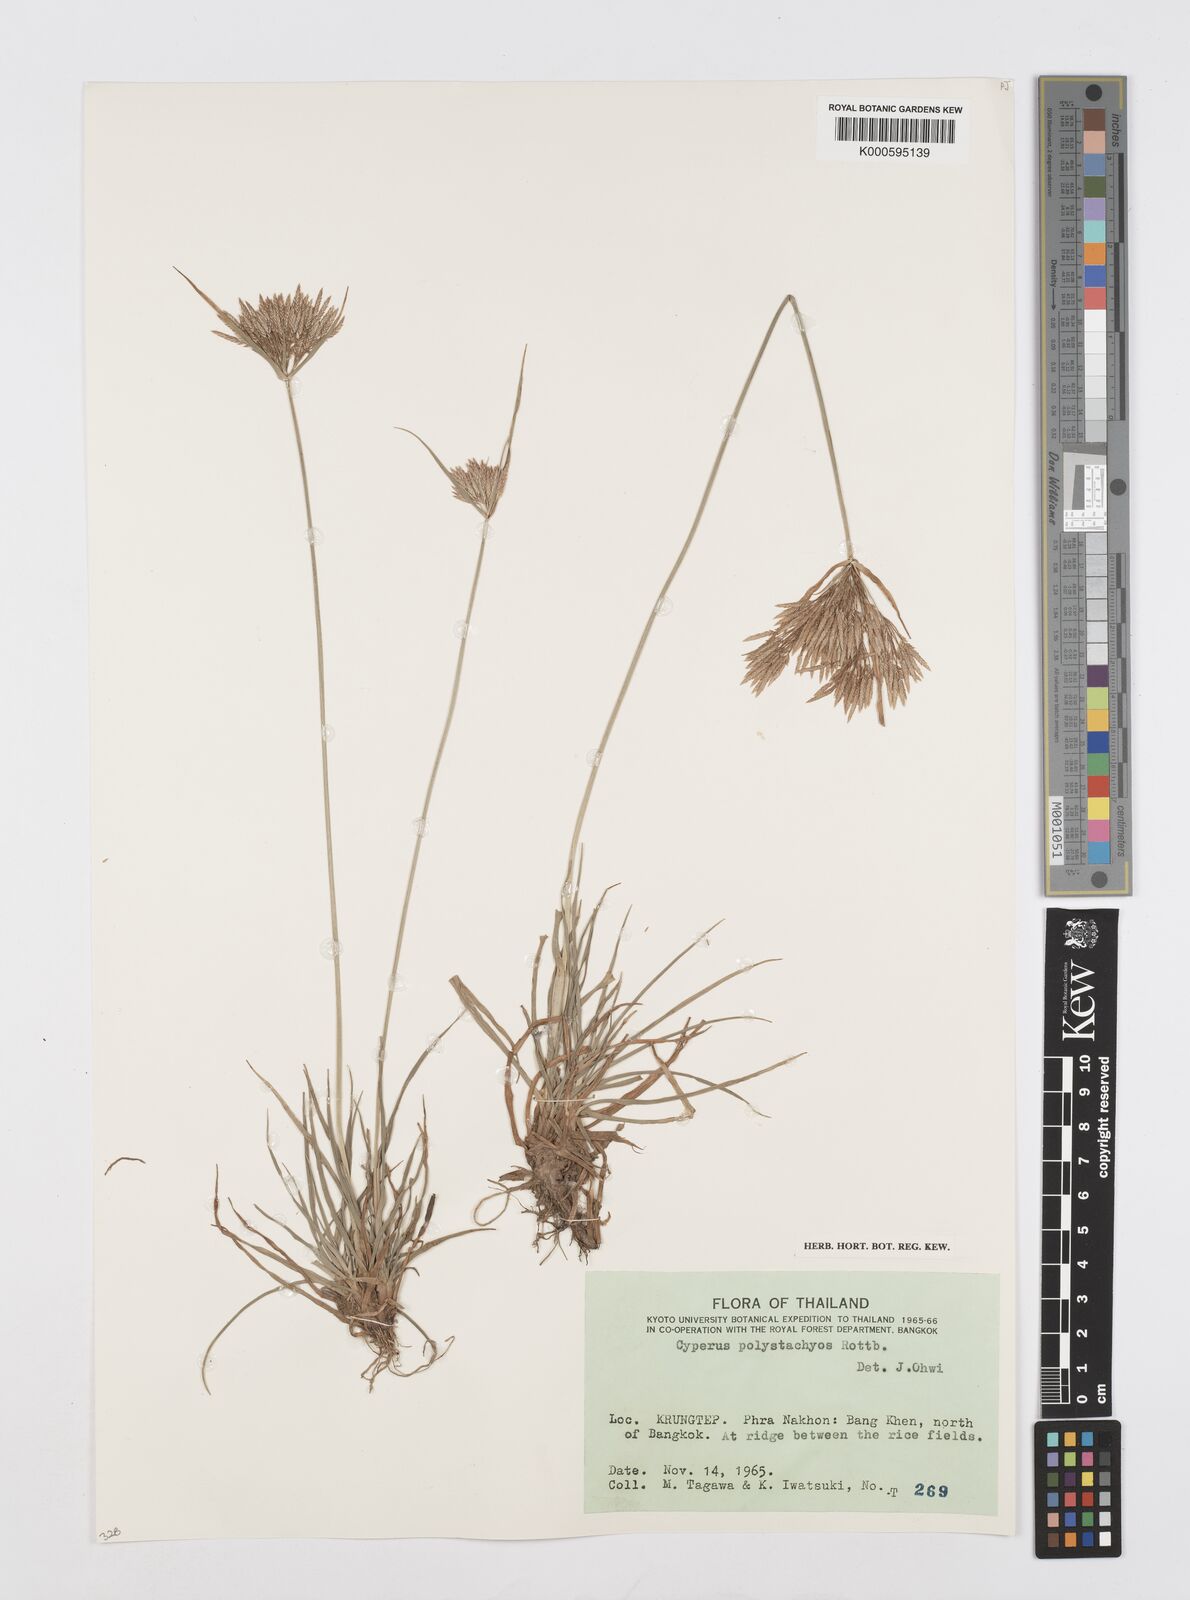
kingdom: Plantae
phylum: Tracheophyta
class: Liliopsida
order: Poales
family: Cyperaceae
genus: Cyperus
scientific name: Cyperus polystachyos
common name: Bunchy flat sedge
